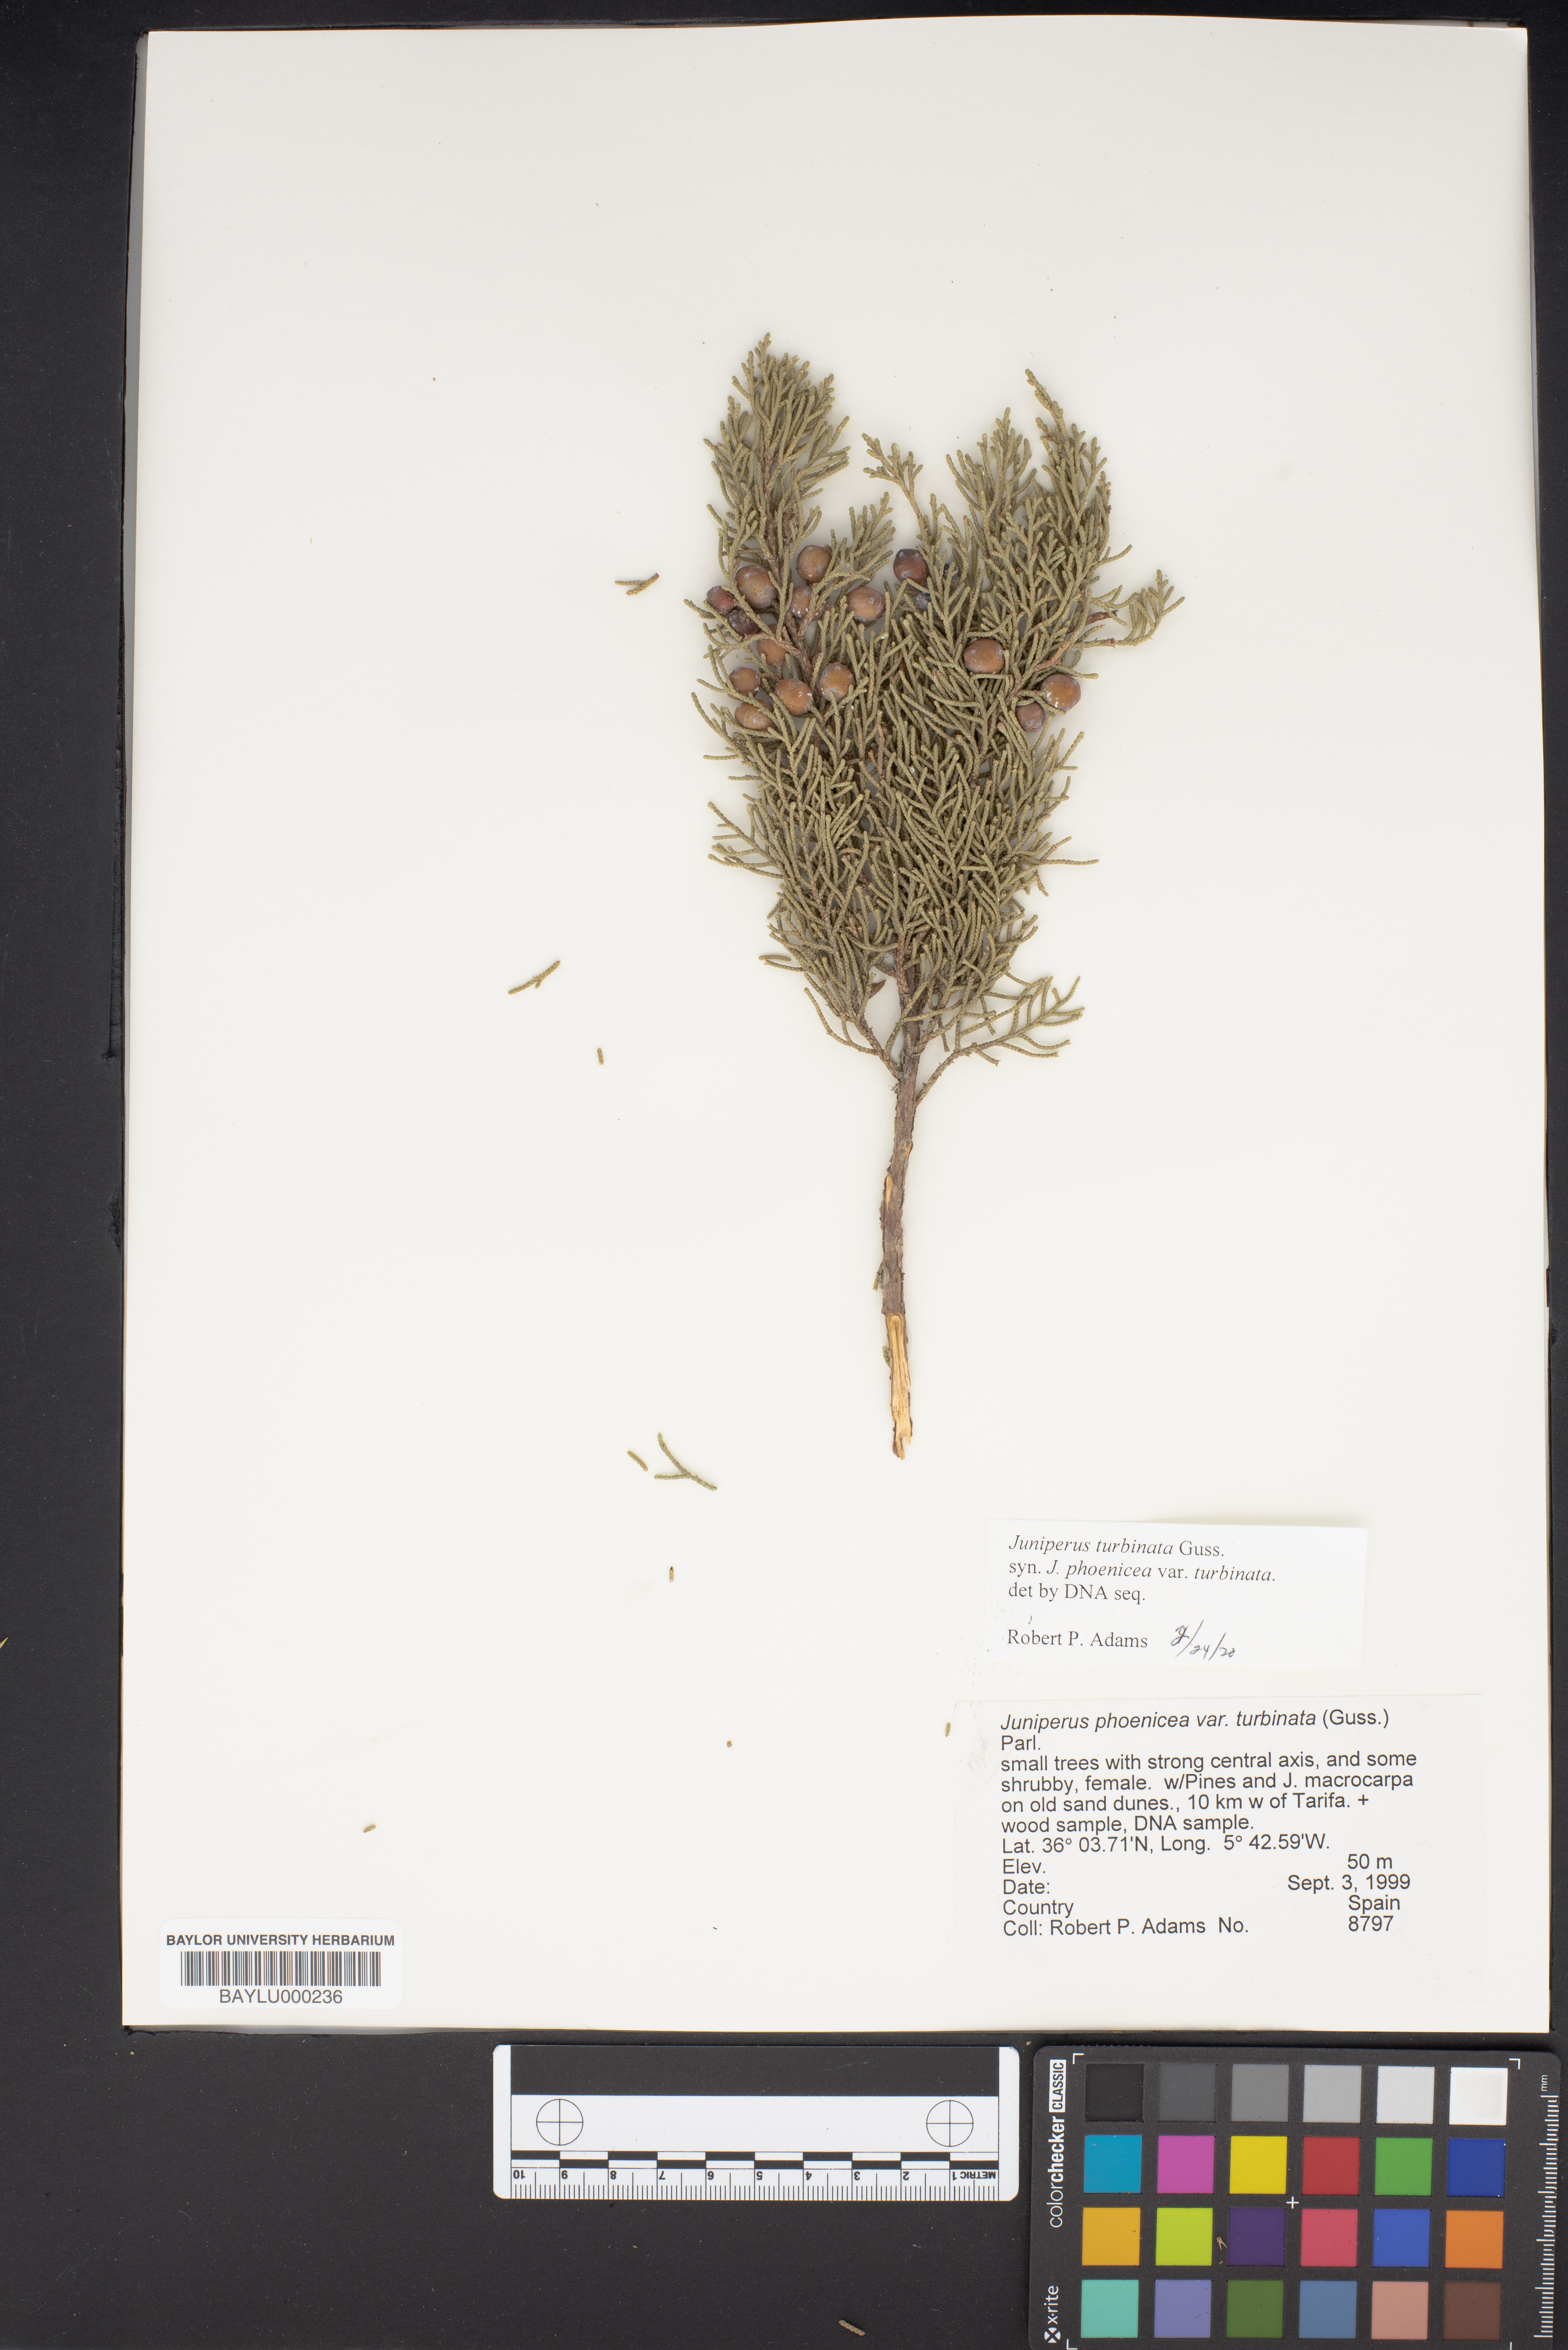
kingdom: Plantae
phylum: Tracheophyta
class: Pinopsida
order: Pinales
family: Cupressaceae
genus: Juniperus
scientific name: Juniperus phoenicea
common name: Phoenician juniper
